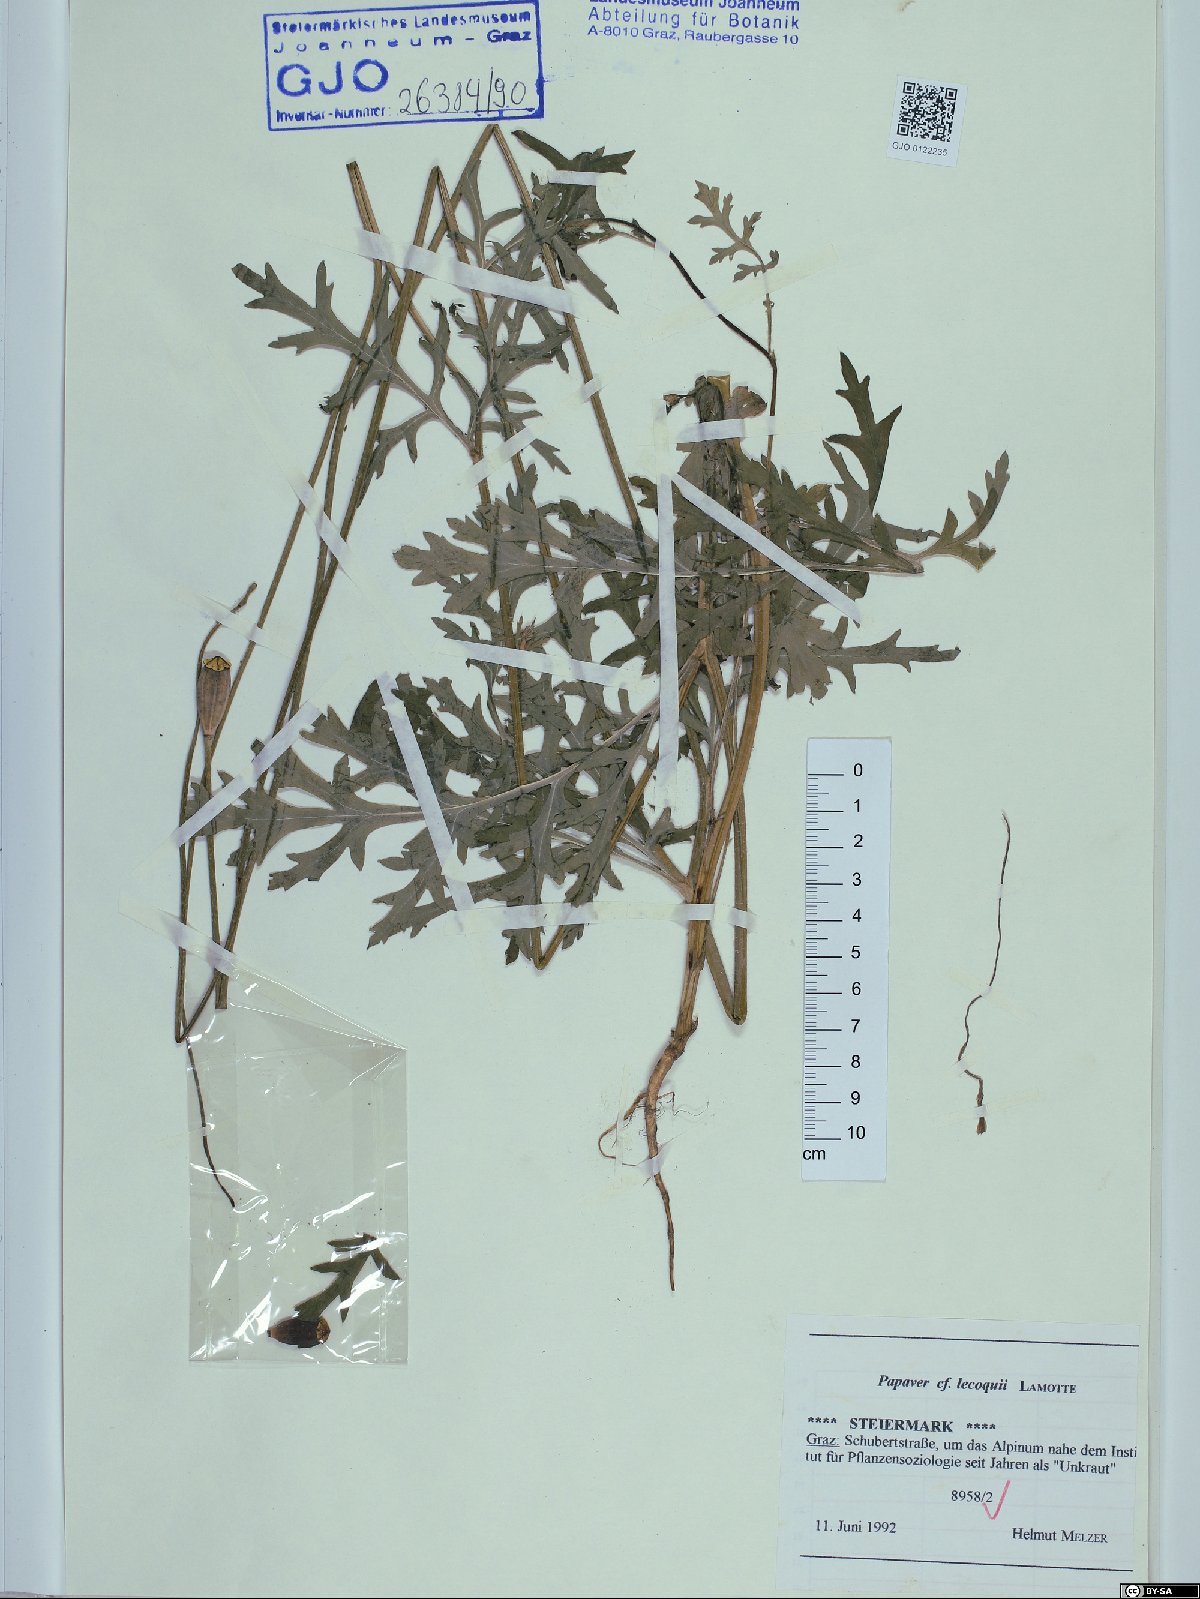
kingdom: Plantae
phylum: Tracheophyta
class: Magnoliopsida
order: Ranunculales
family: Papaveraceae
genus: Papaver
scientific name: Papaver lecoqii
